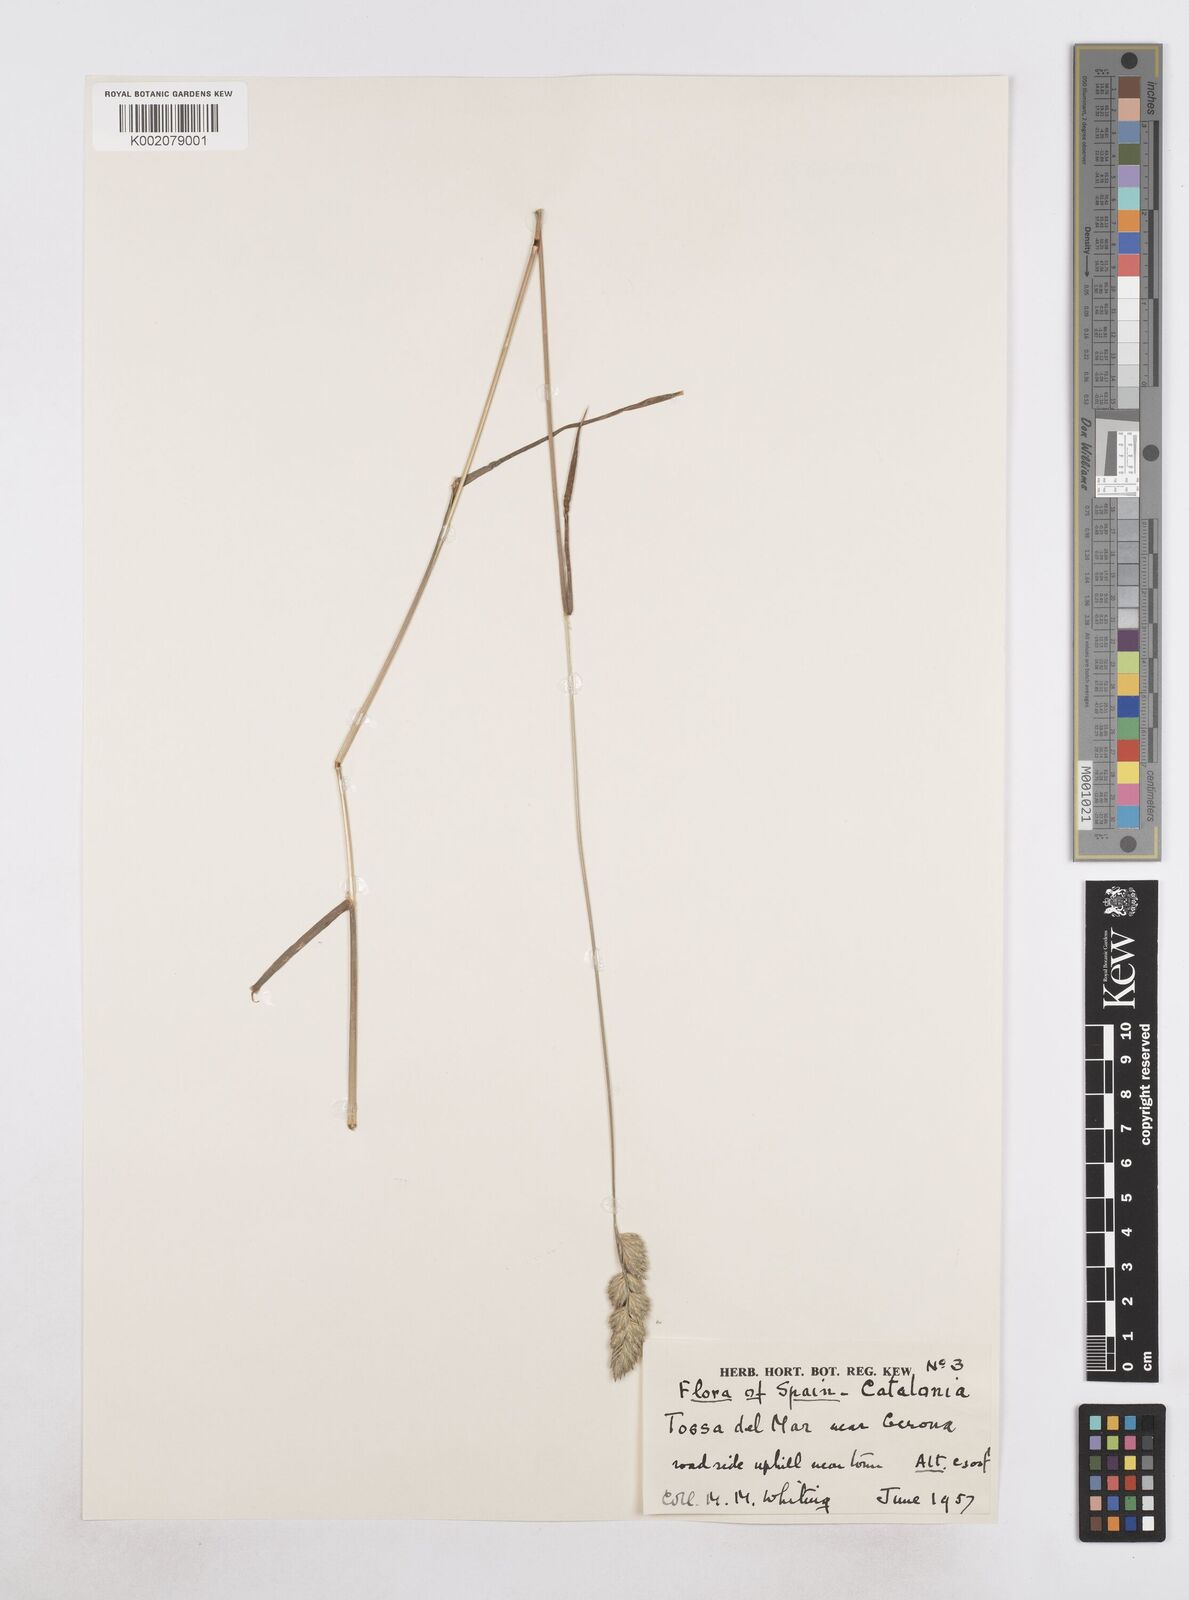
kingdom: Plantae
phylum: Tracheophyta
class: Liliopsida
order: Poales
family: Poaceae
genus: Dactylis
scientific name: Dactylis glomerata
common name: Orchardgrass
